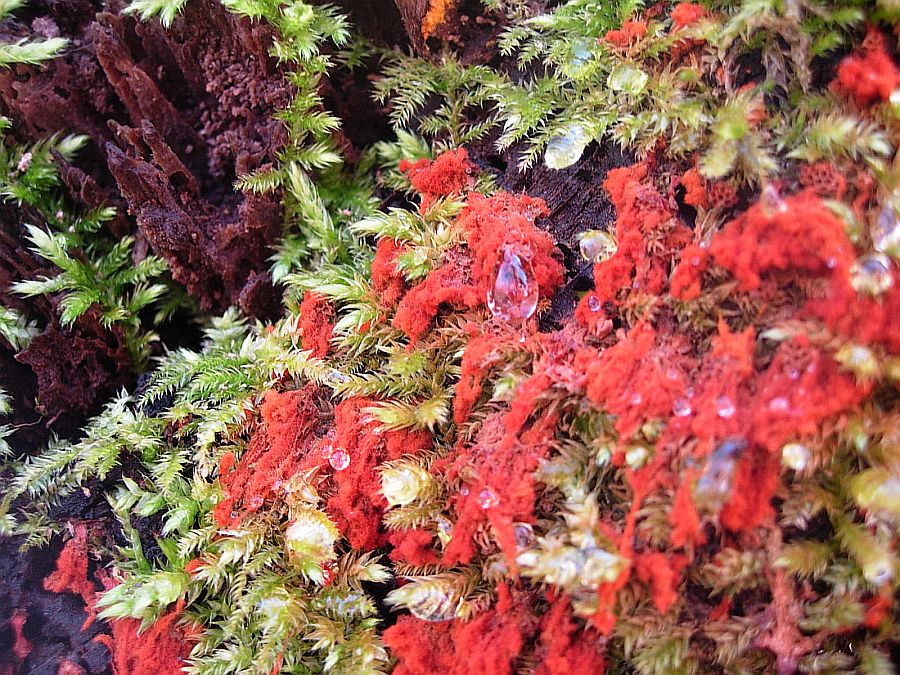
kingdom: Protozoa
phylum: Mycetozoa
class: Myxomycetes
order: Trichiales
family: Trichiaceae
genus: Metatrichia
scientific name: Metatrichia vesparia
